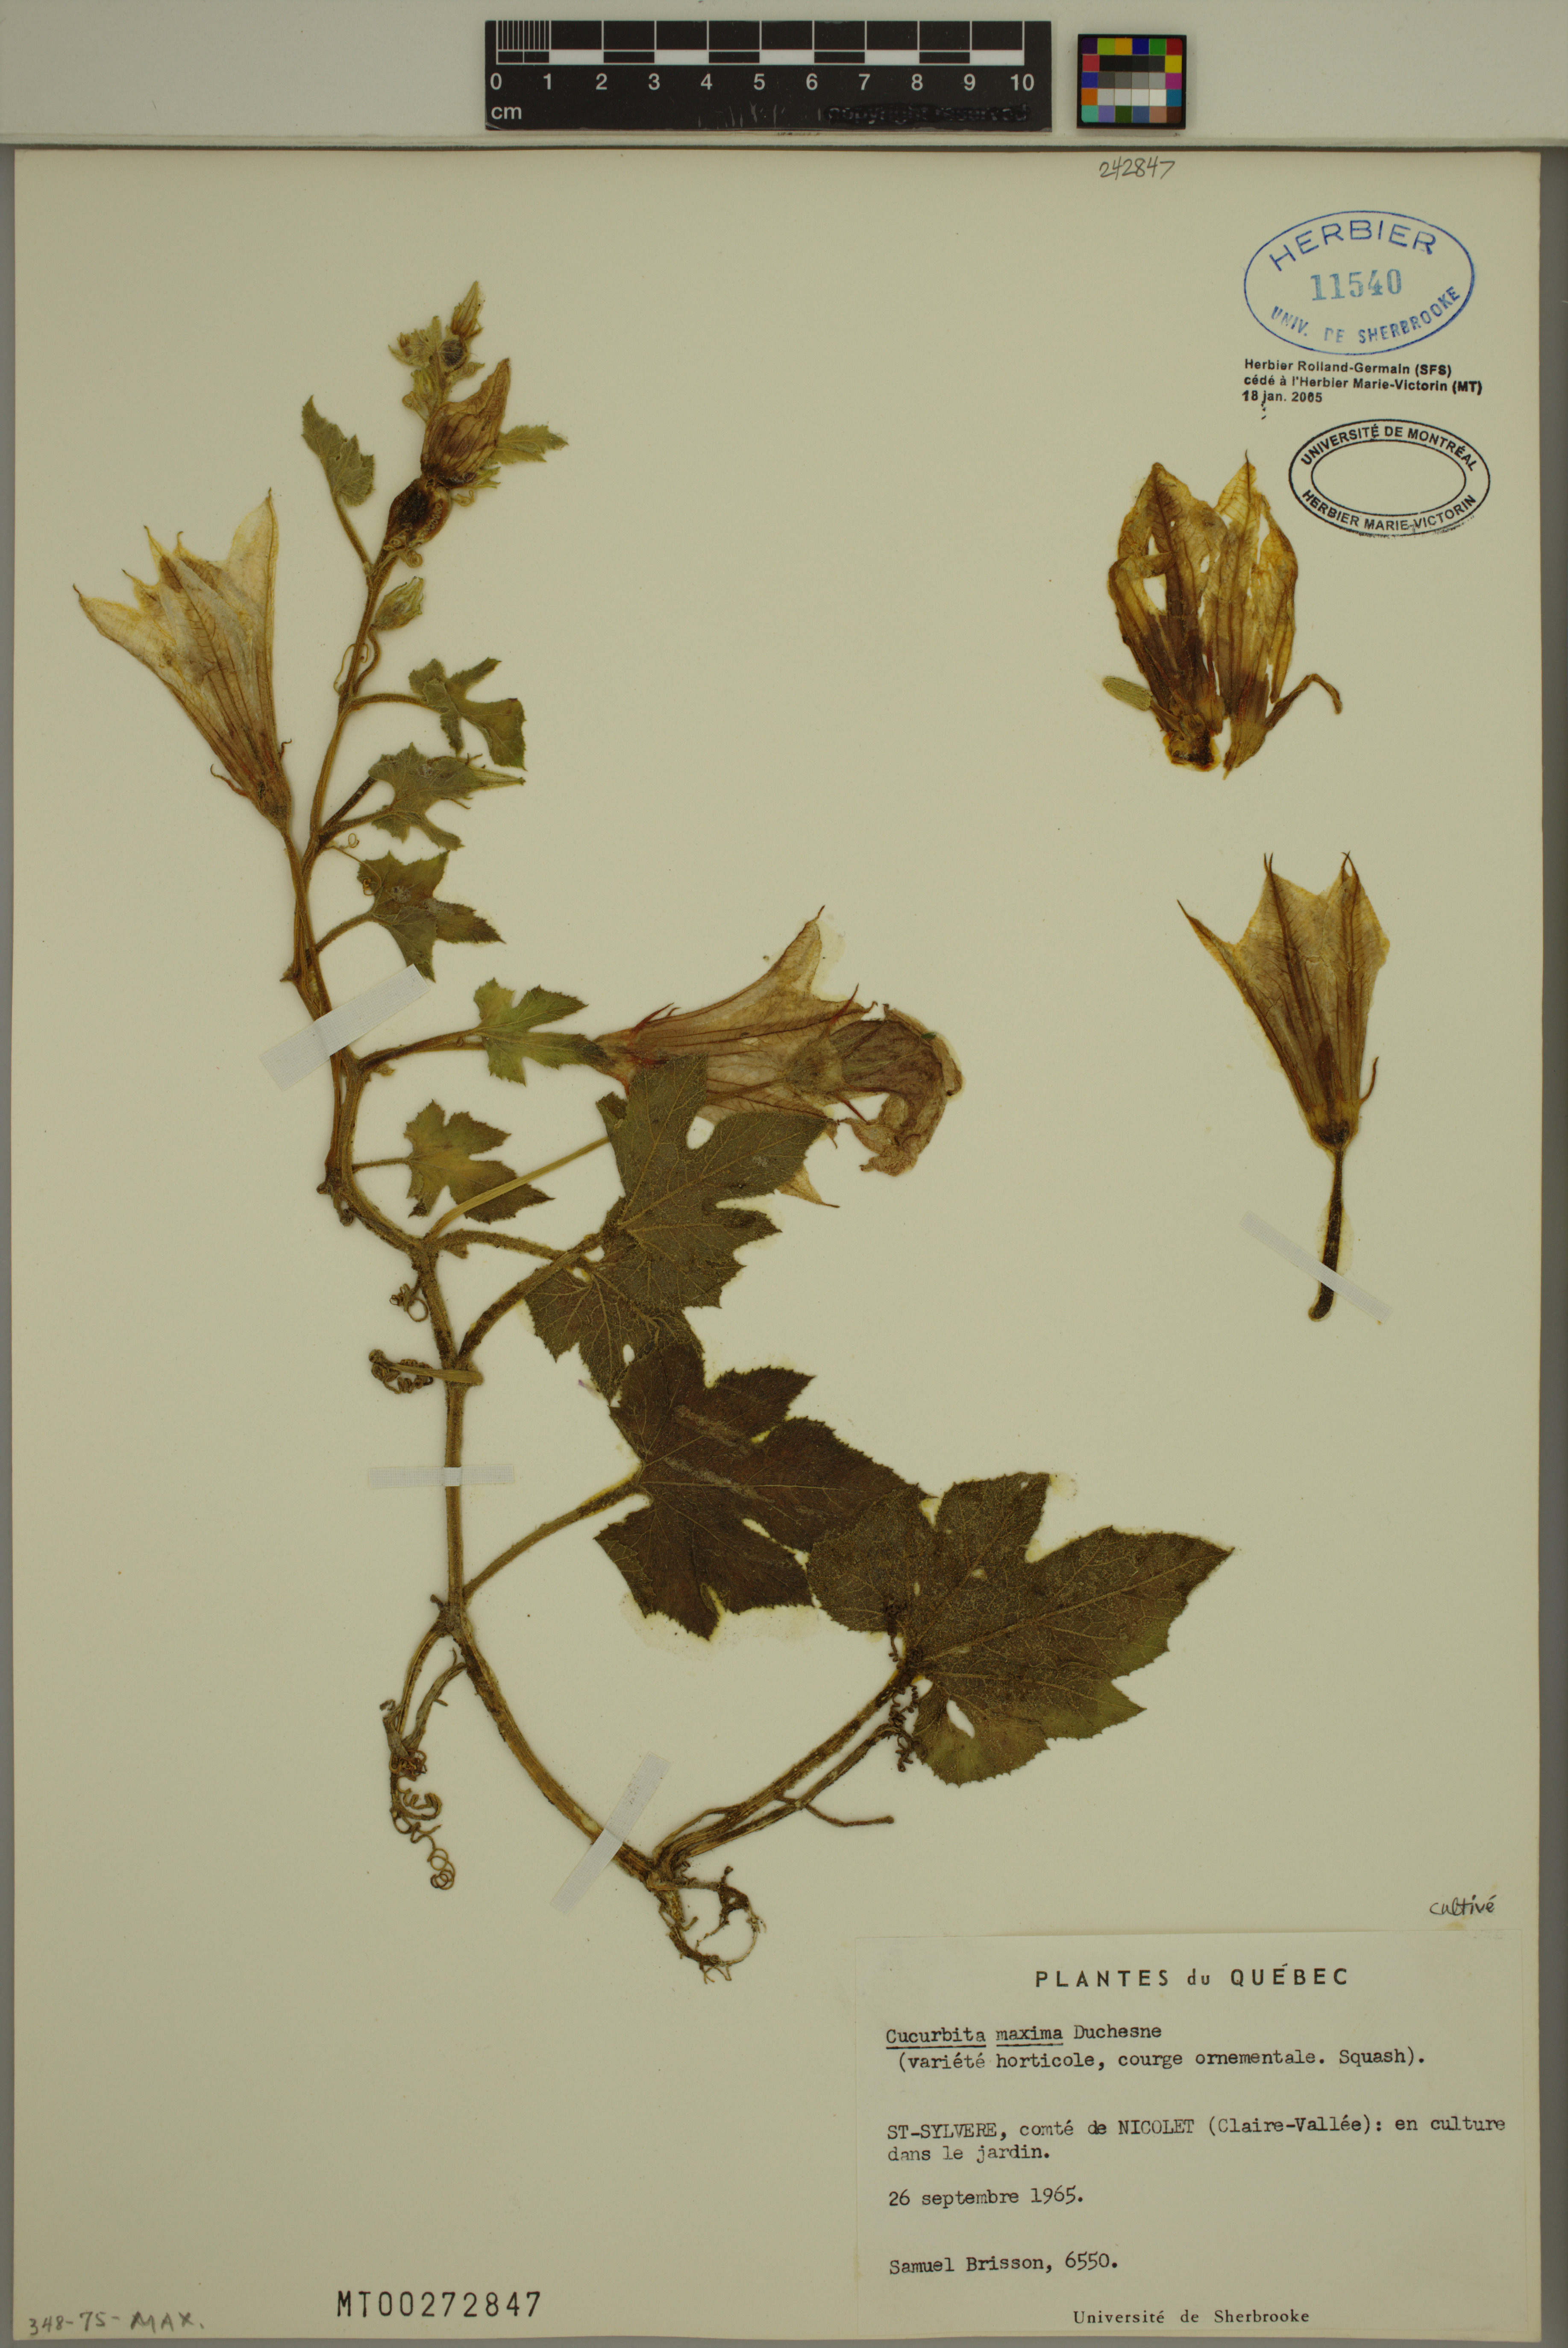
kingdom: Plantae
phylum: Tracheophyta
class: Magnoliopsida
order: Cucurbitales
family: Cucurbitaceae
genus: Cucurbita
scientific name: Cucurbita maxima
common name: Pumpkin
